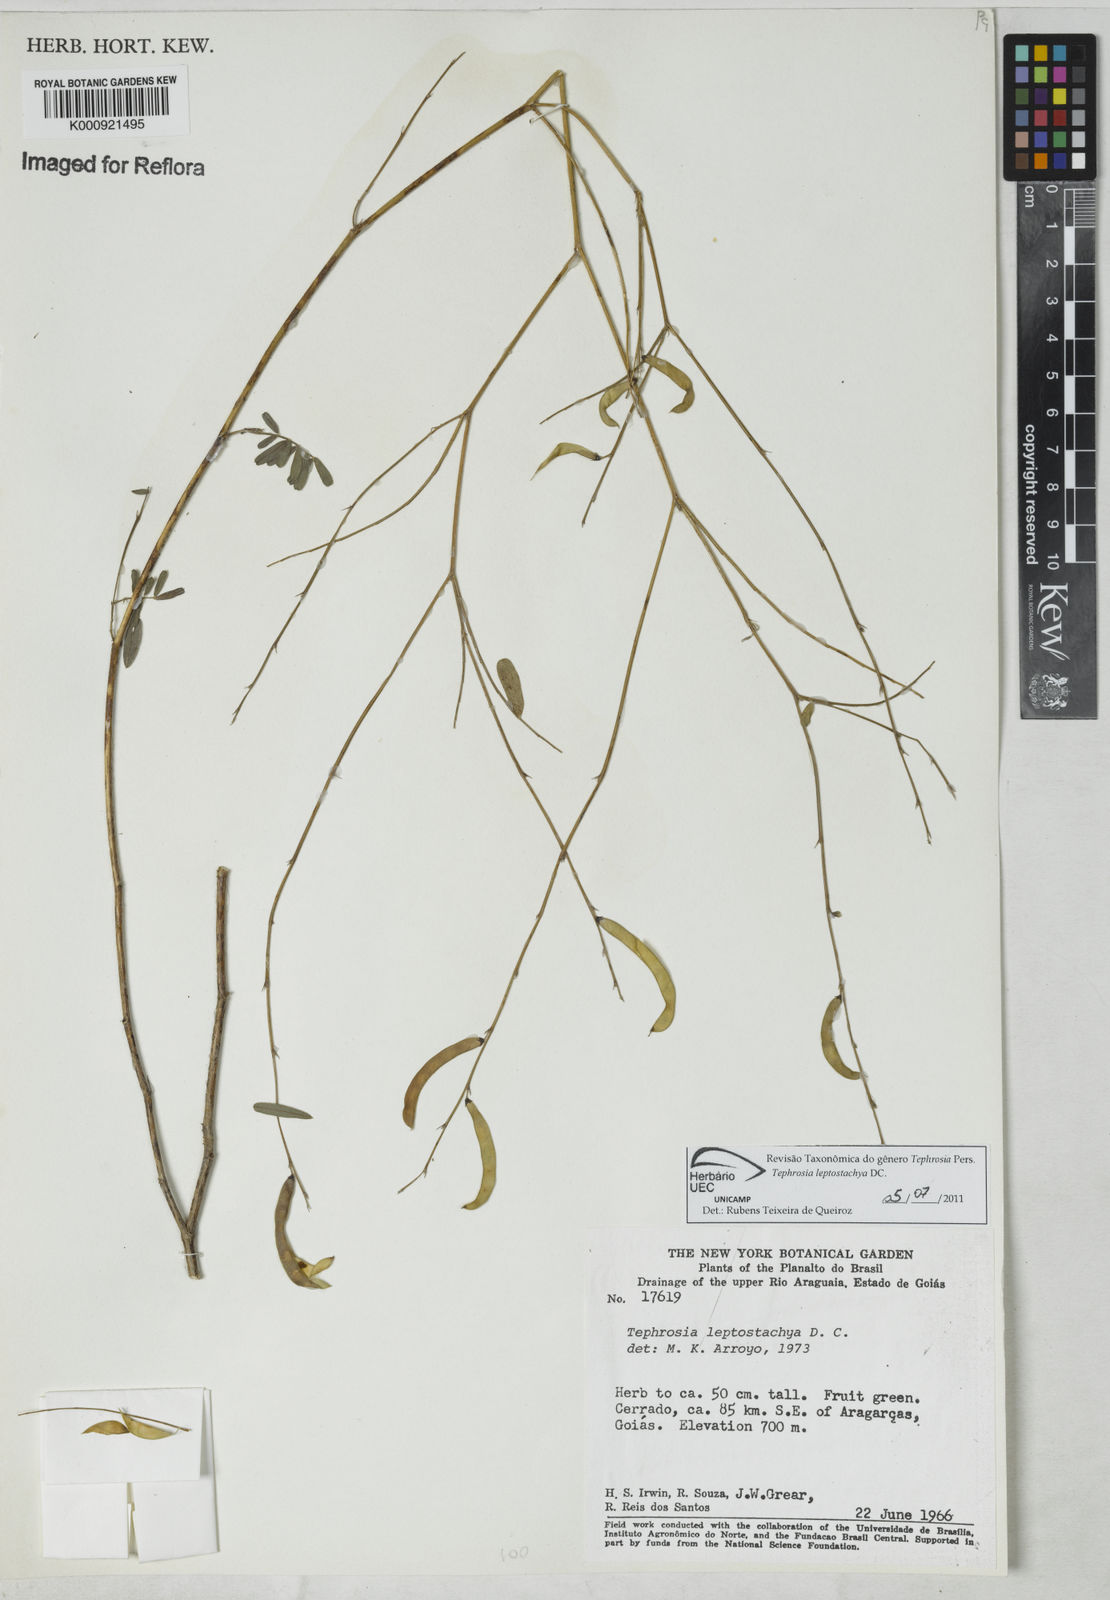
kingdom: Plantae
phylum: Tracheophyta
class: Magnoliopsida
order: Fabales
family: Fabaceae
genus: Tephrosia
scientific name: Tephrosia purpurea
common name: Fishpoison
